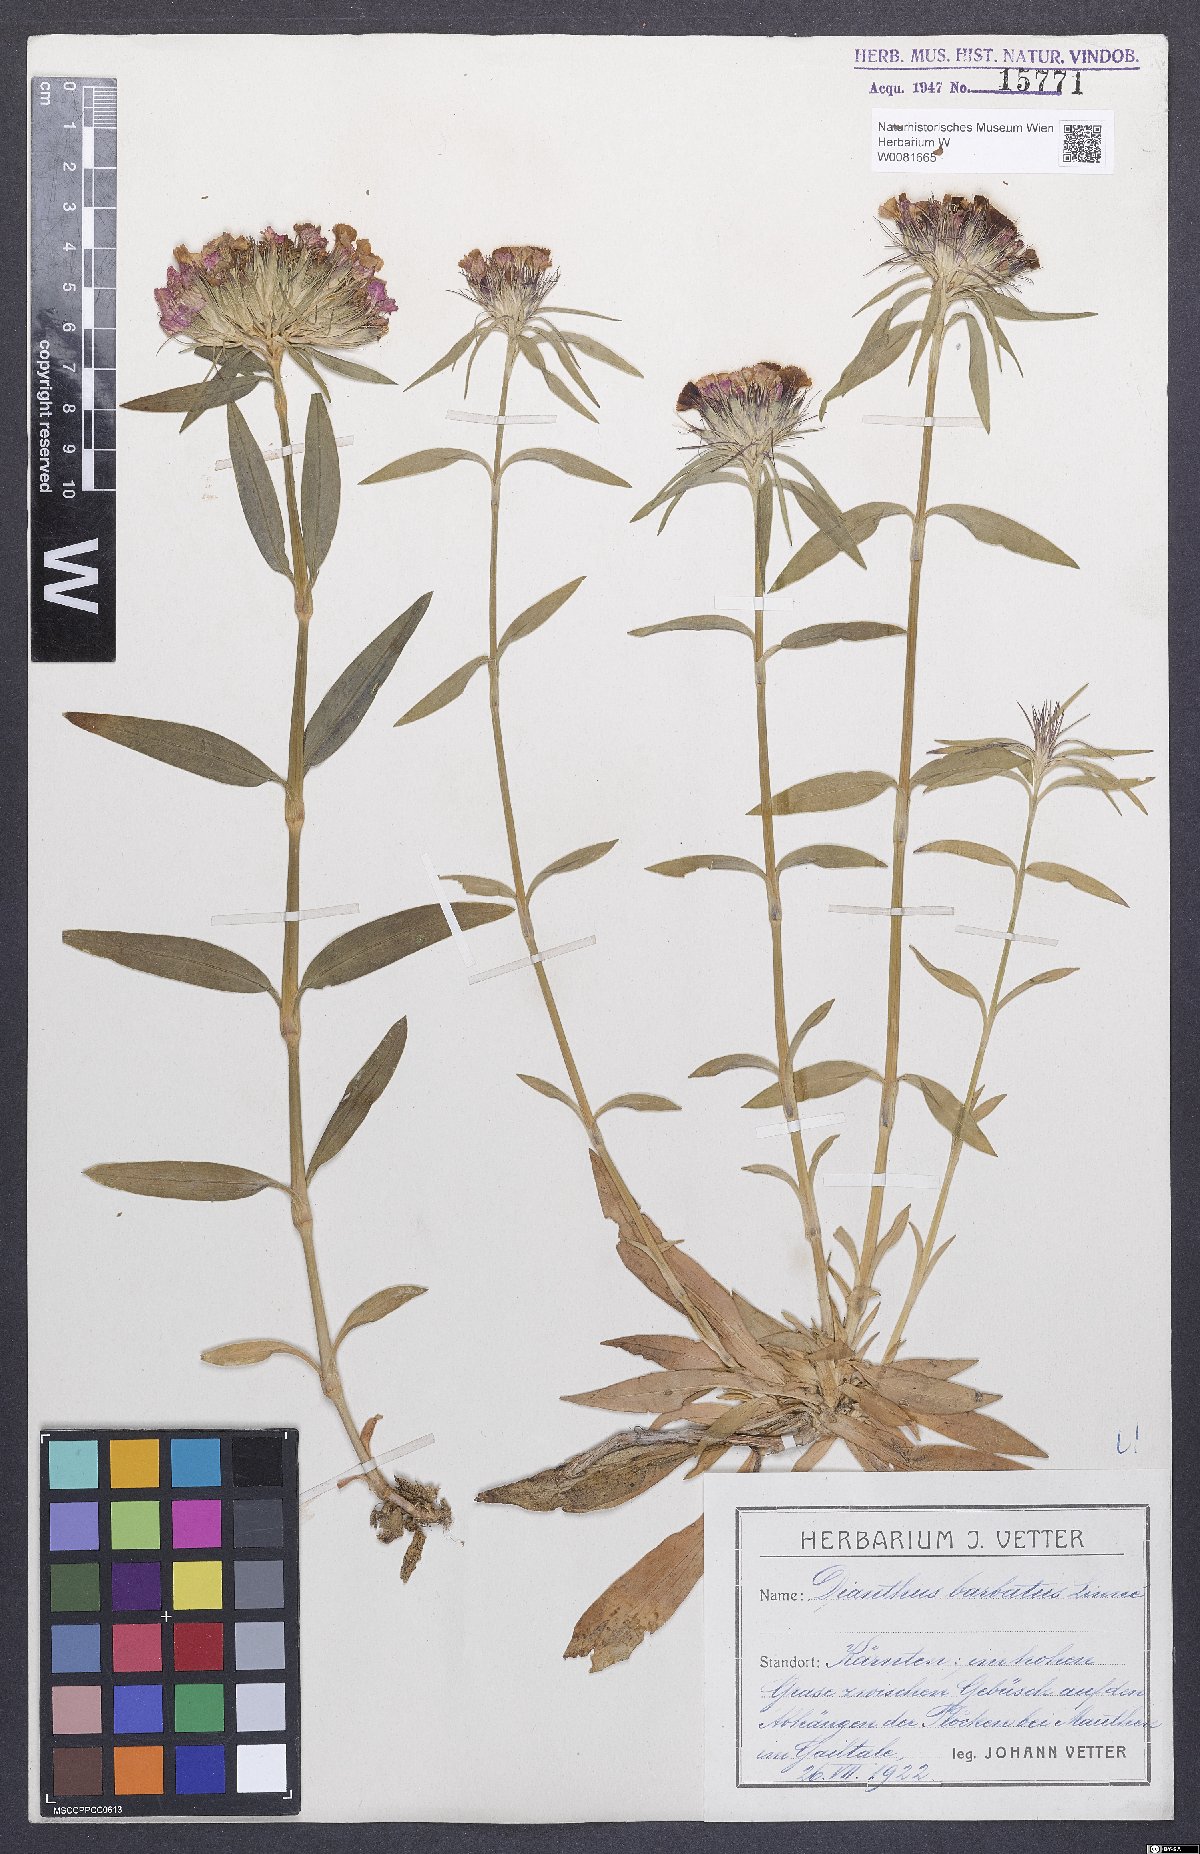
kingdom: Plantae
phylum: Tracheophyta
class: Magnoliopsida
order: Caryophyllales
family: Caryophyllaceae
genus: Dianthus
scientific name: Dianthus barbatus
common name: Sweet-william
